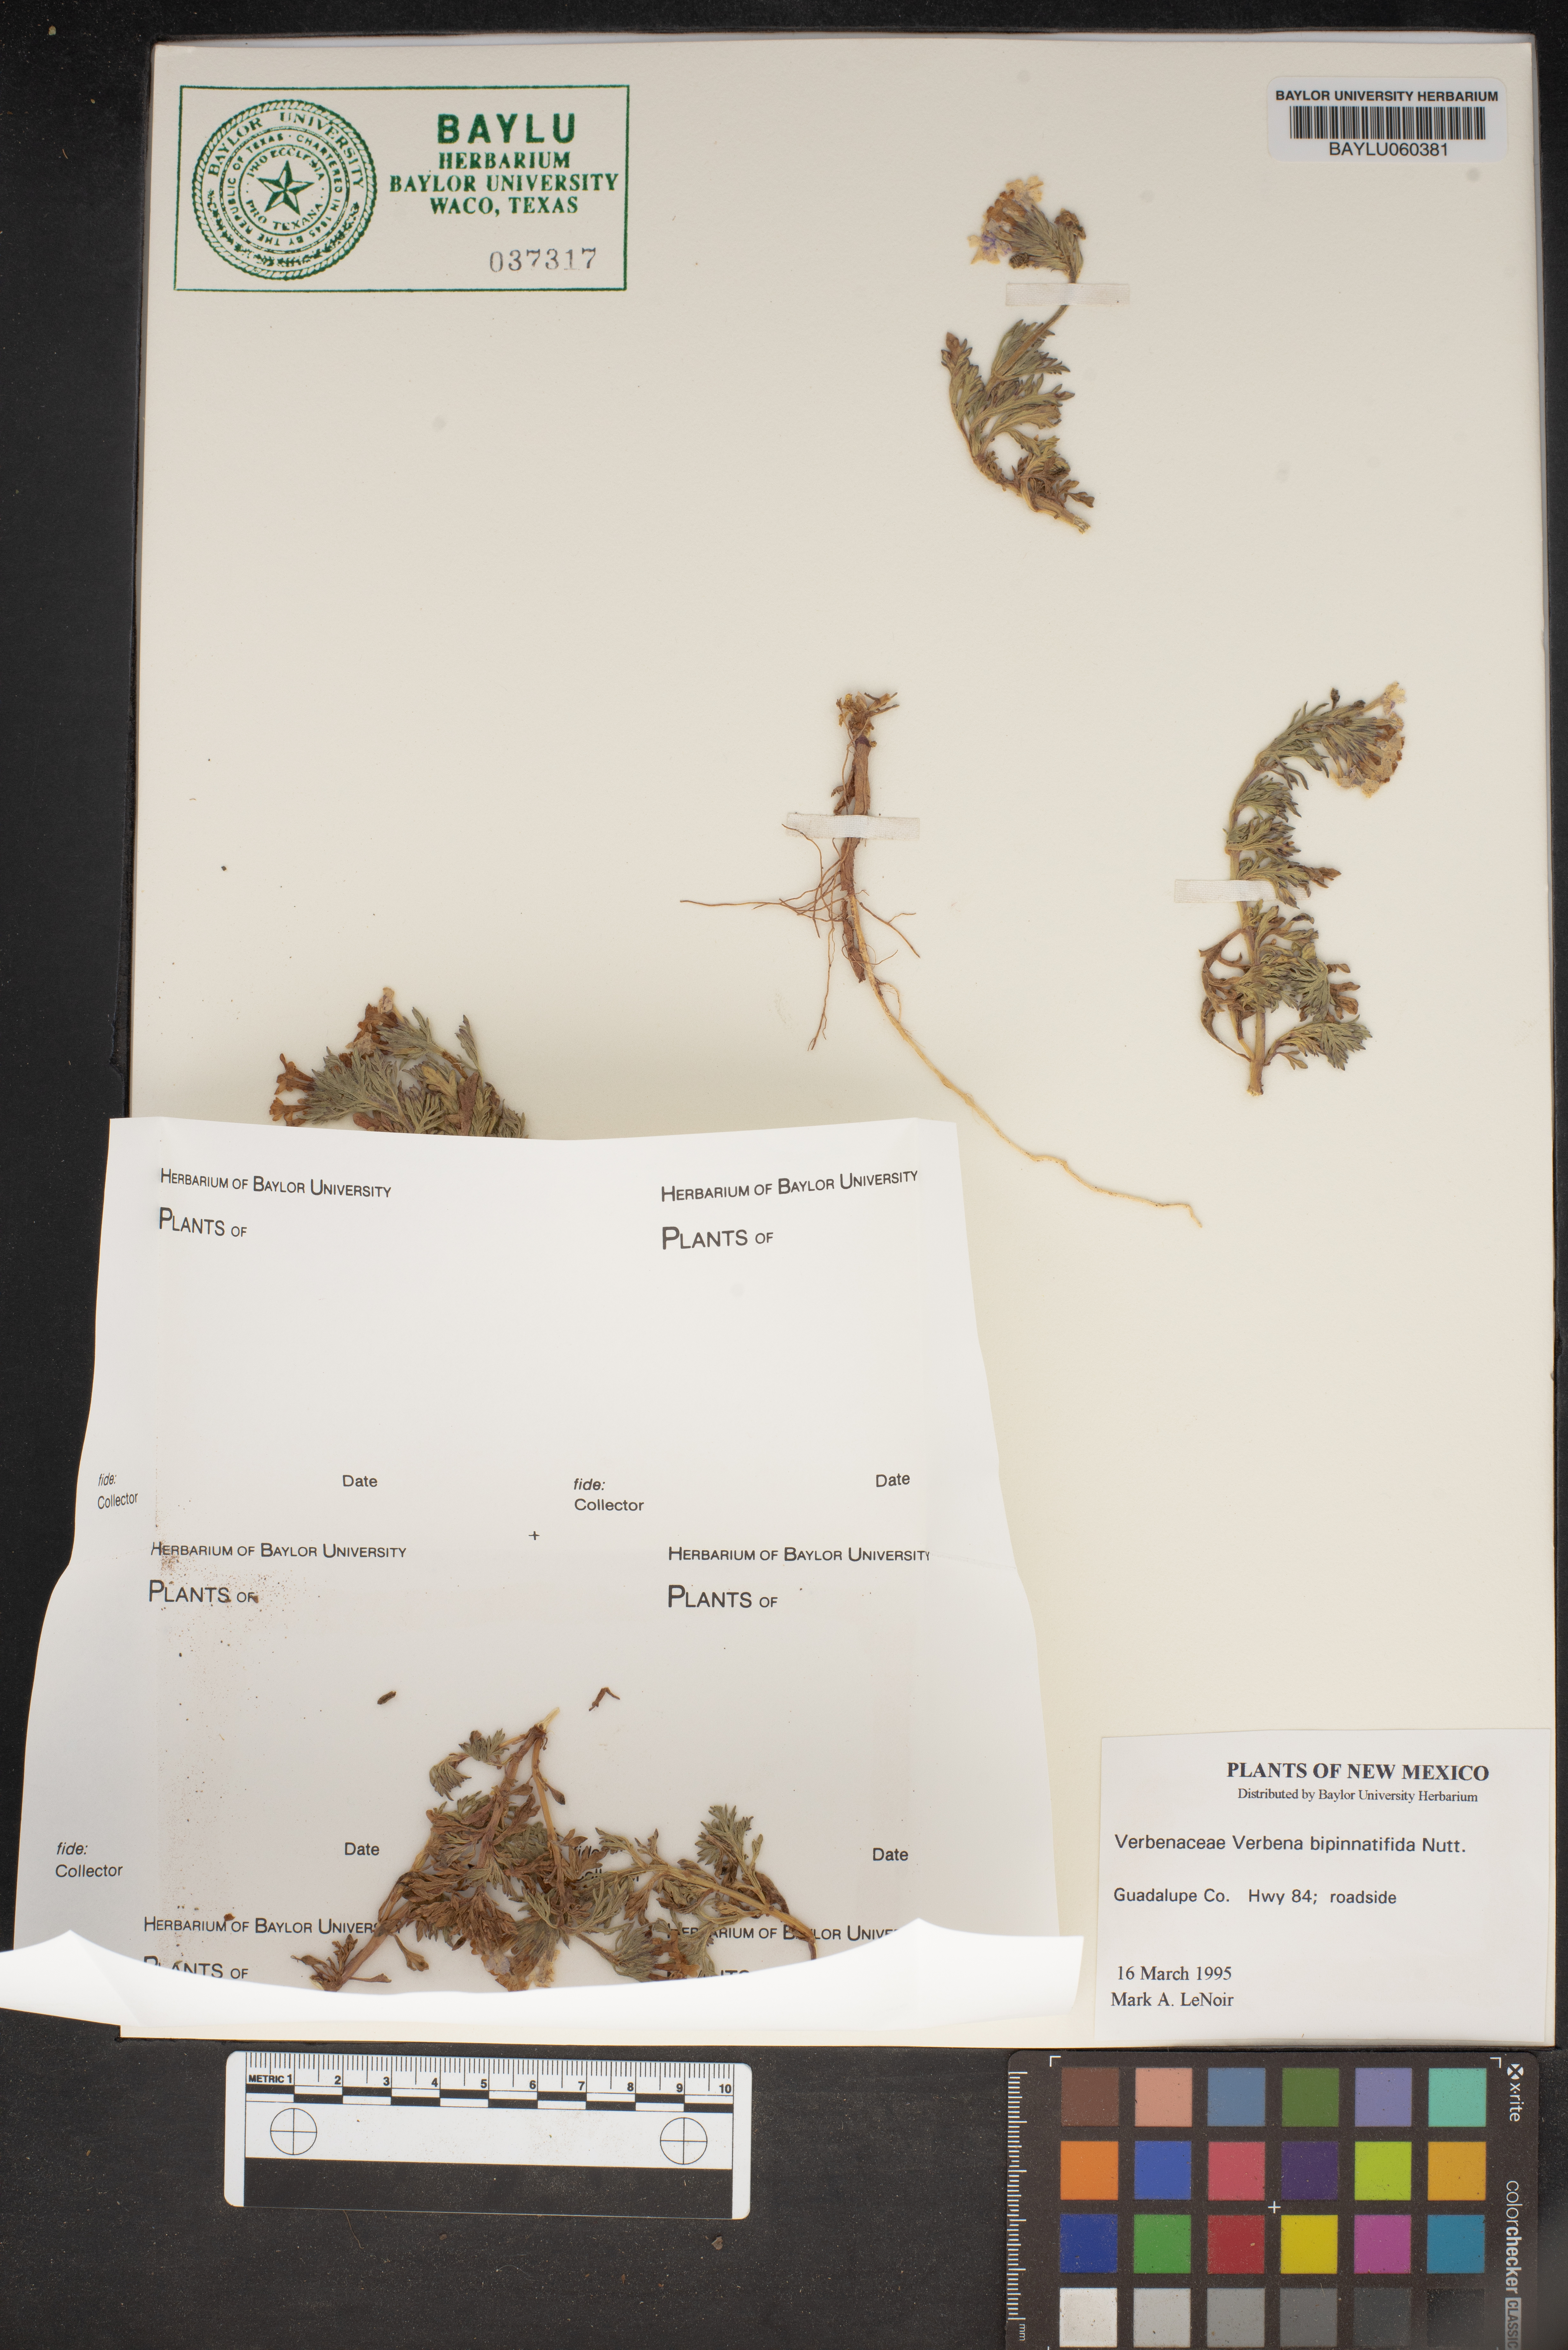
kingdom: Plantae
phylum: Tracheophyta
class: Magnoliopsida
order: Lamiales
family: Verbenaceae
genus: Verbena
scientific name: Verbena bipinnatifida
